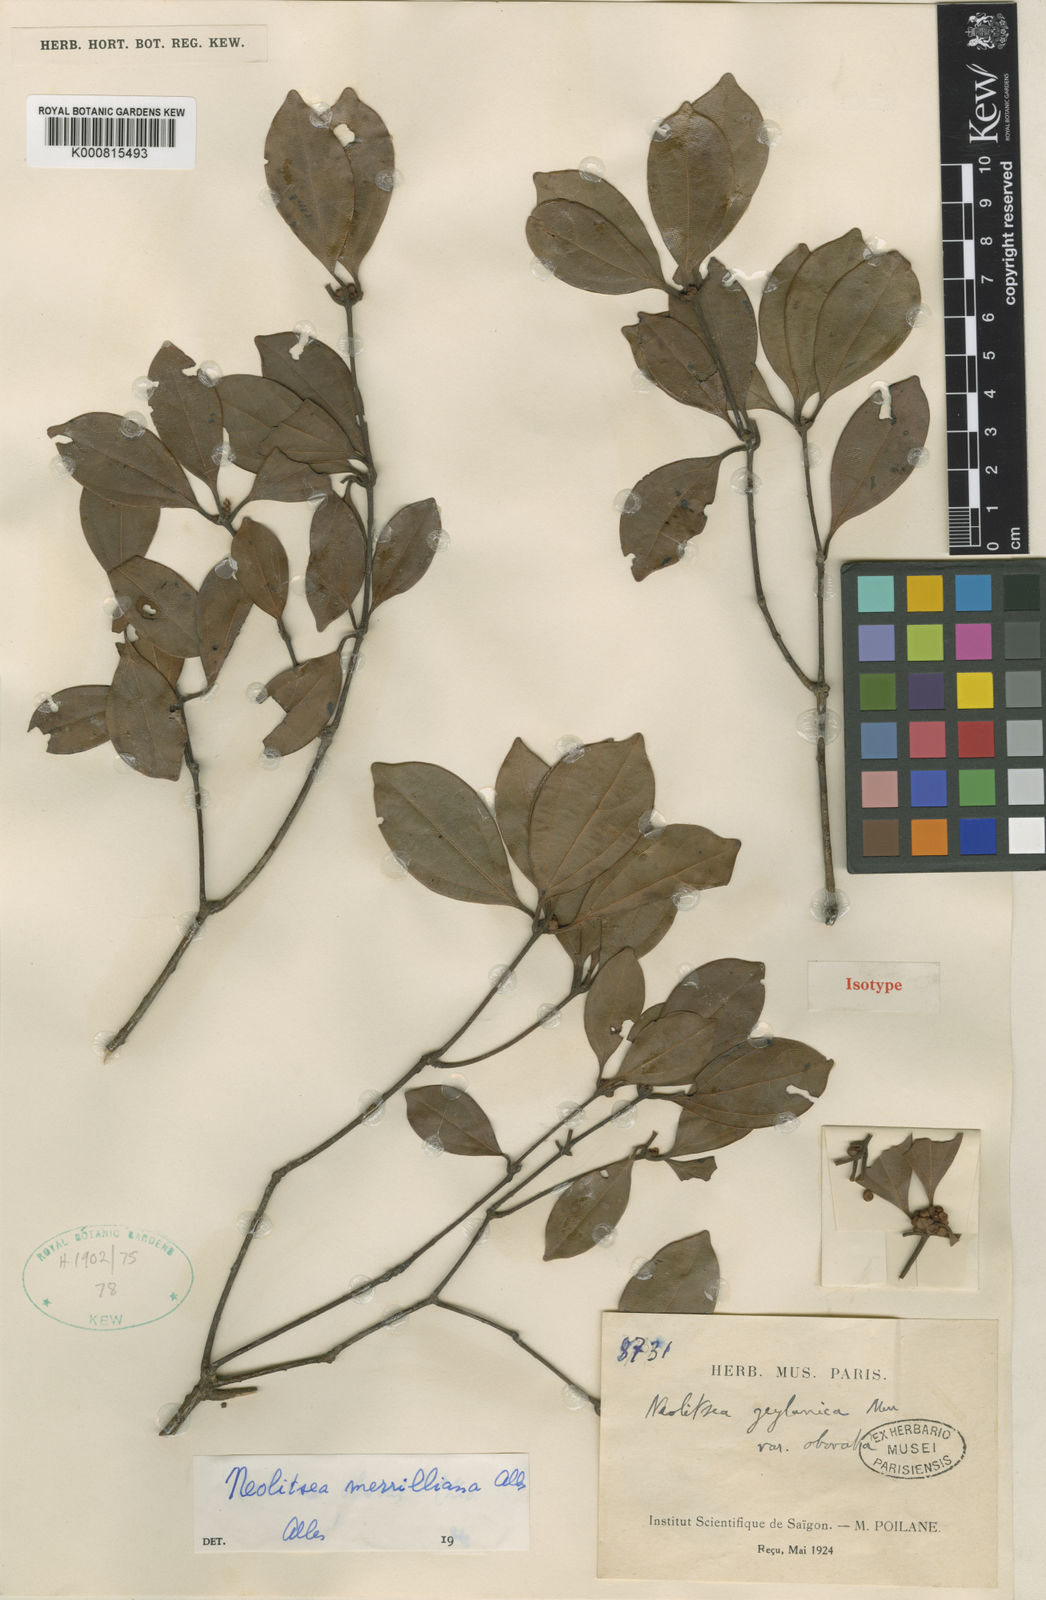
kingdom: Plantae
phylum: Tracheophyta
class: Magnoliopsida
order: Laurales
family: Lauraceae
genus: Neolitsea
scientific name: Neolitsea buisanensis
